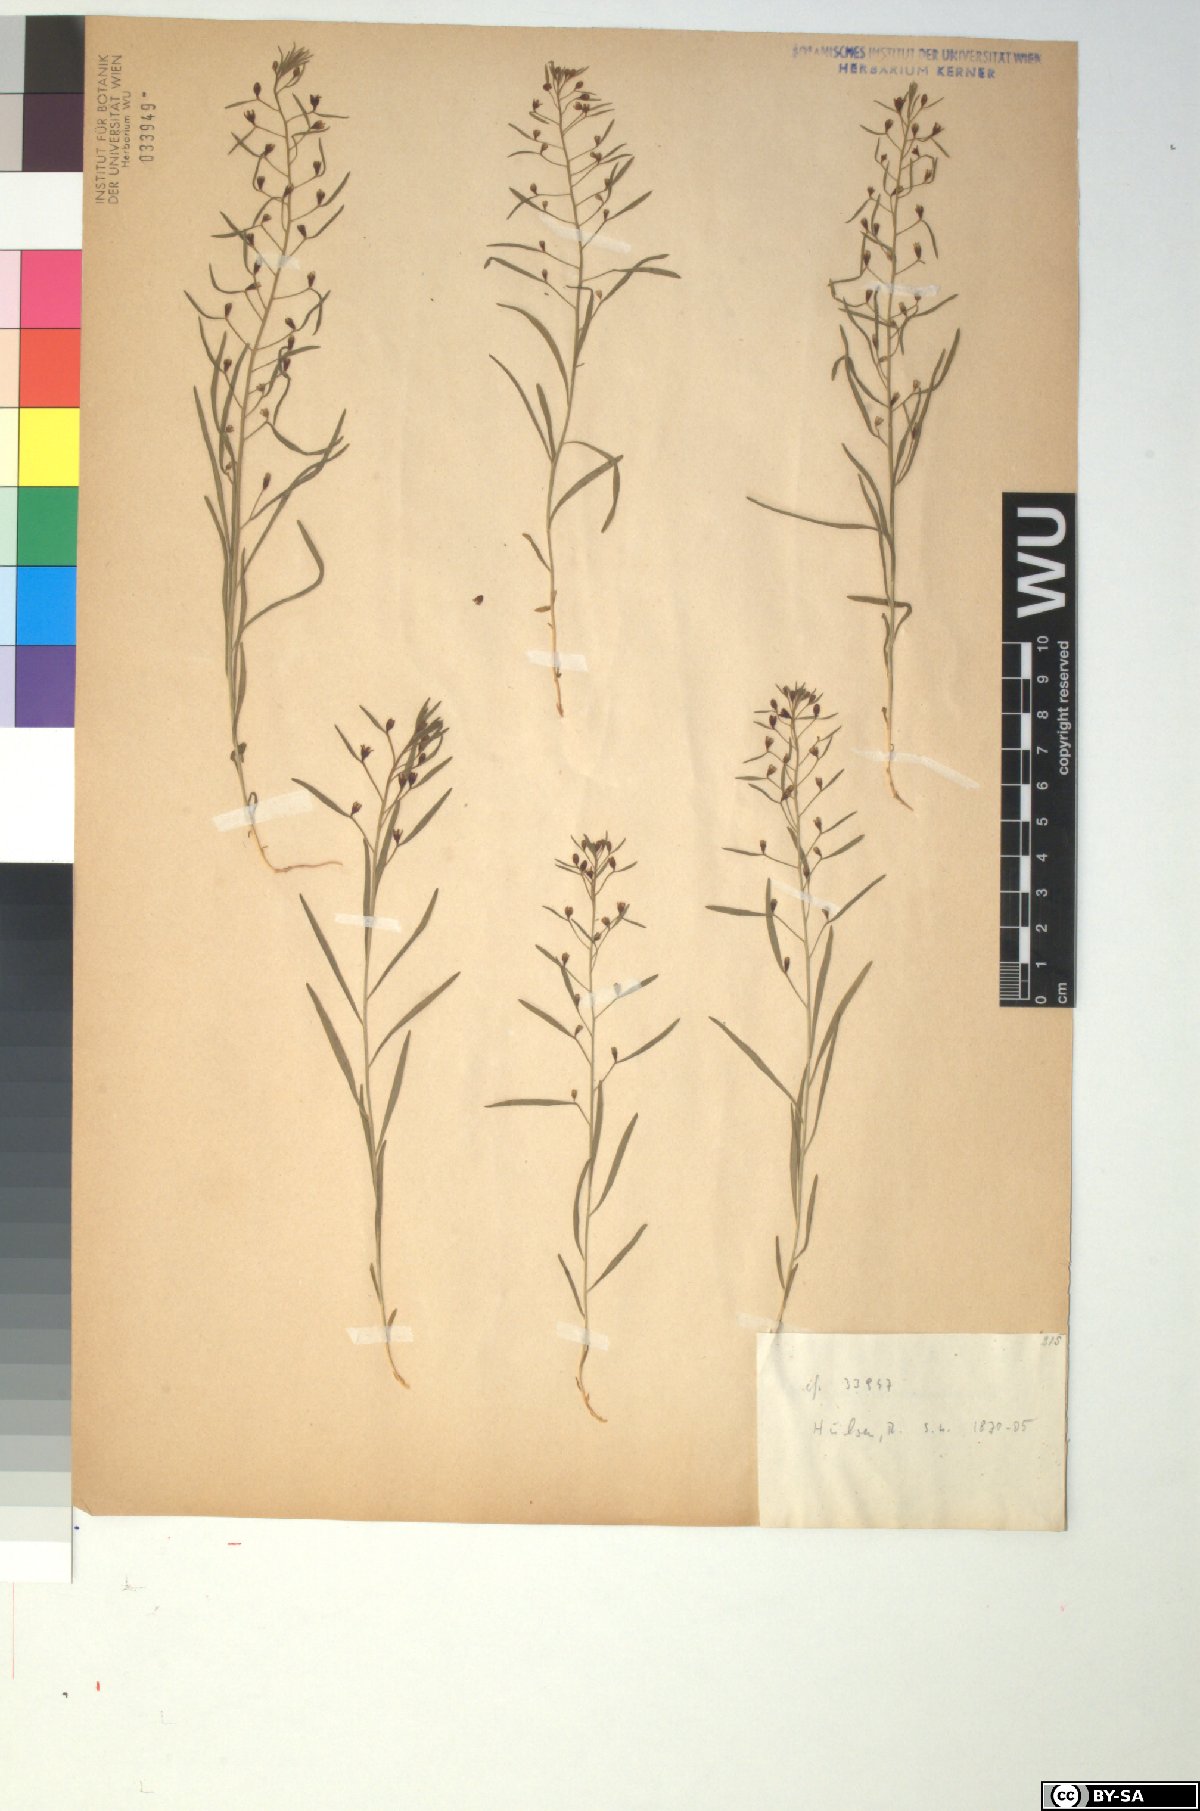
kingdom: Plantae
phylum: Tracheophyta
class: Magnoliopsida
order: Santalales
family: Thesiaceae
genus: Thesium
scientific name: Thesium ebracteatum
